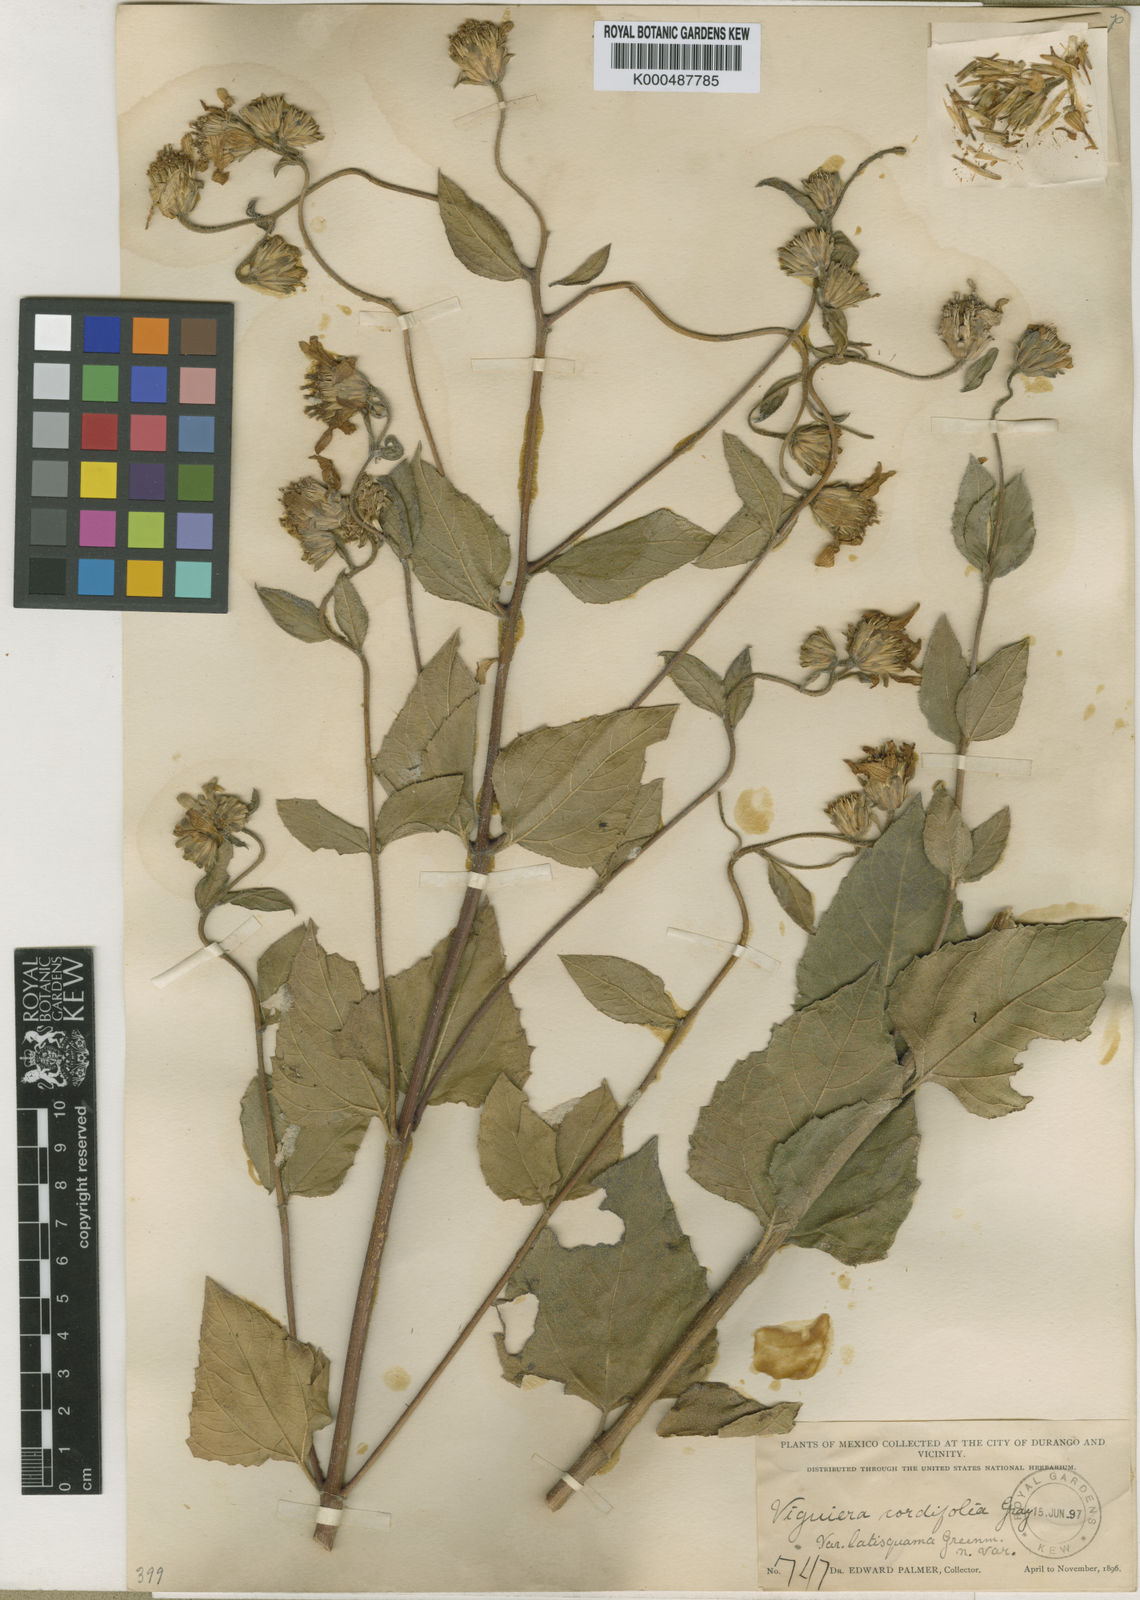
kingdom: Plantae
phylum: Tracheophyta
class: Magnoliopsida
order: Asterales
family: Asteraceae
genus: Aldama
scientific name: Aldama cordifolia
